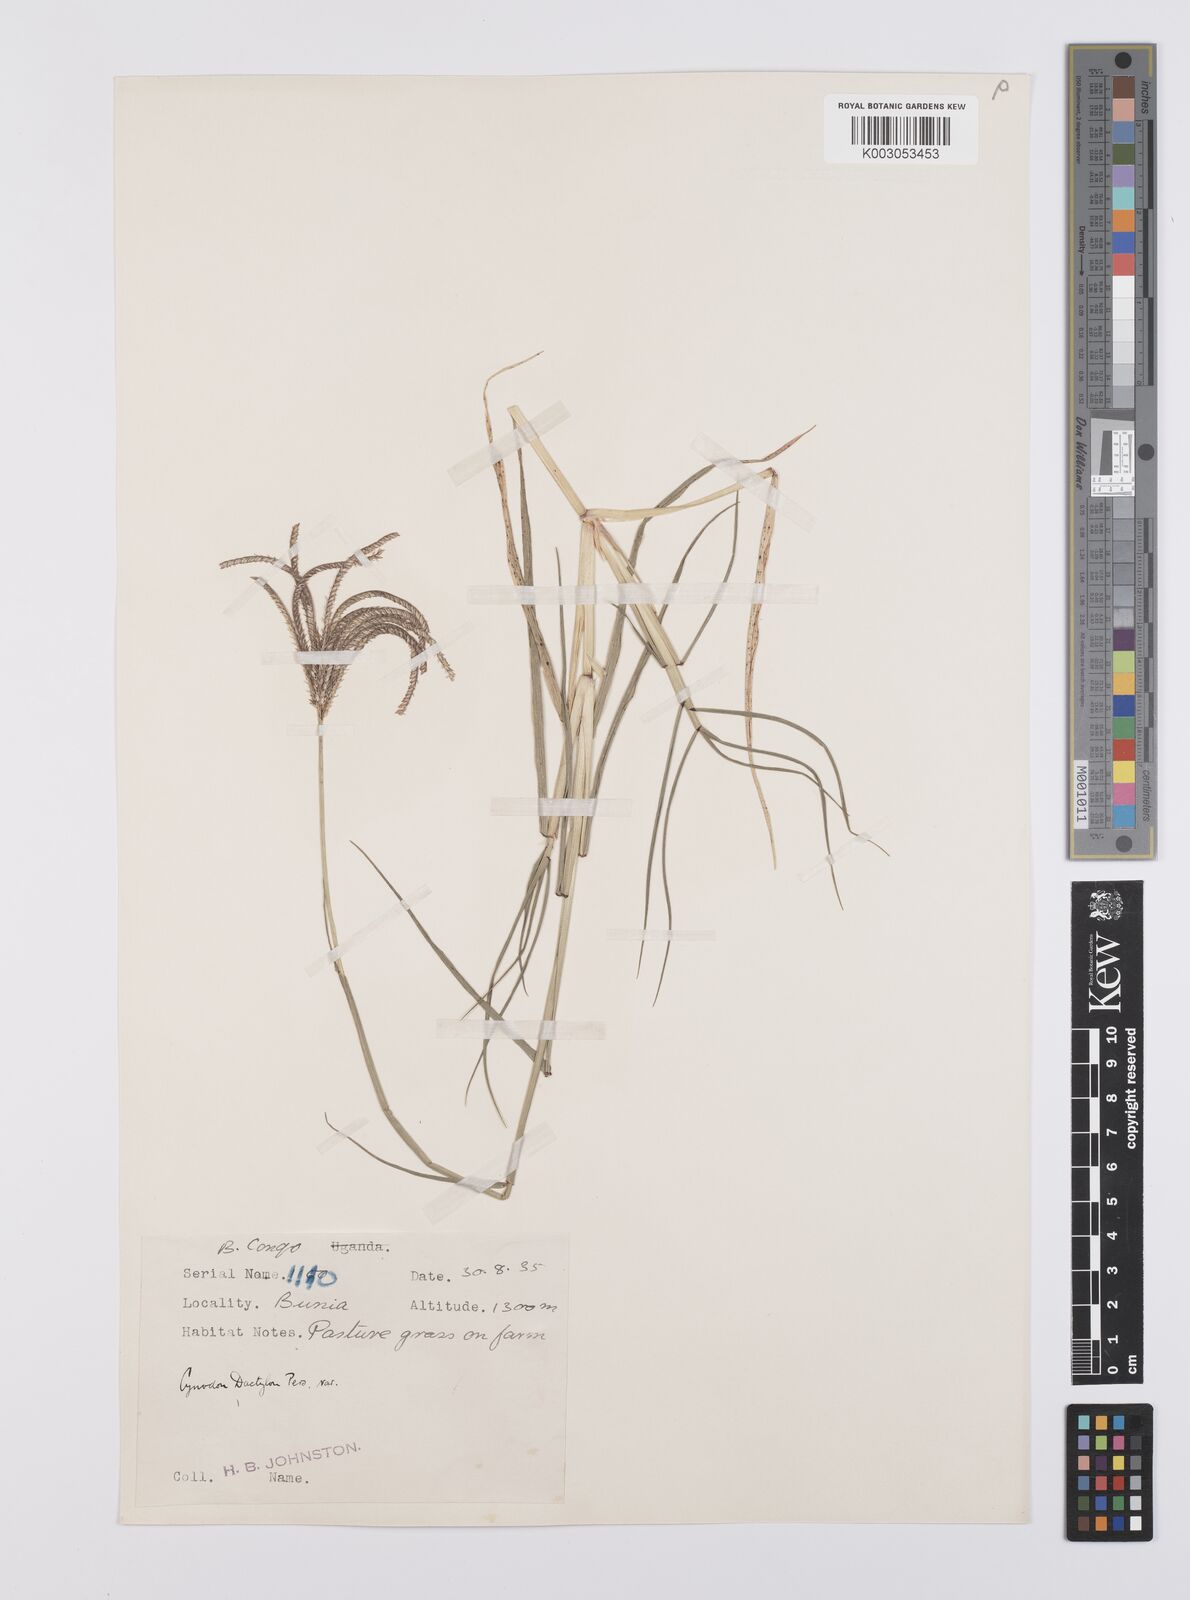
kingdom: Plantae
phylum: Tracheophyta
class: Liliopsida
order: Poales
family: Poaceae
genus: Cynodon
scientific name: Cynodon aethiopicus
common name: Ethiopian dogstooth grass
